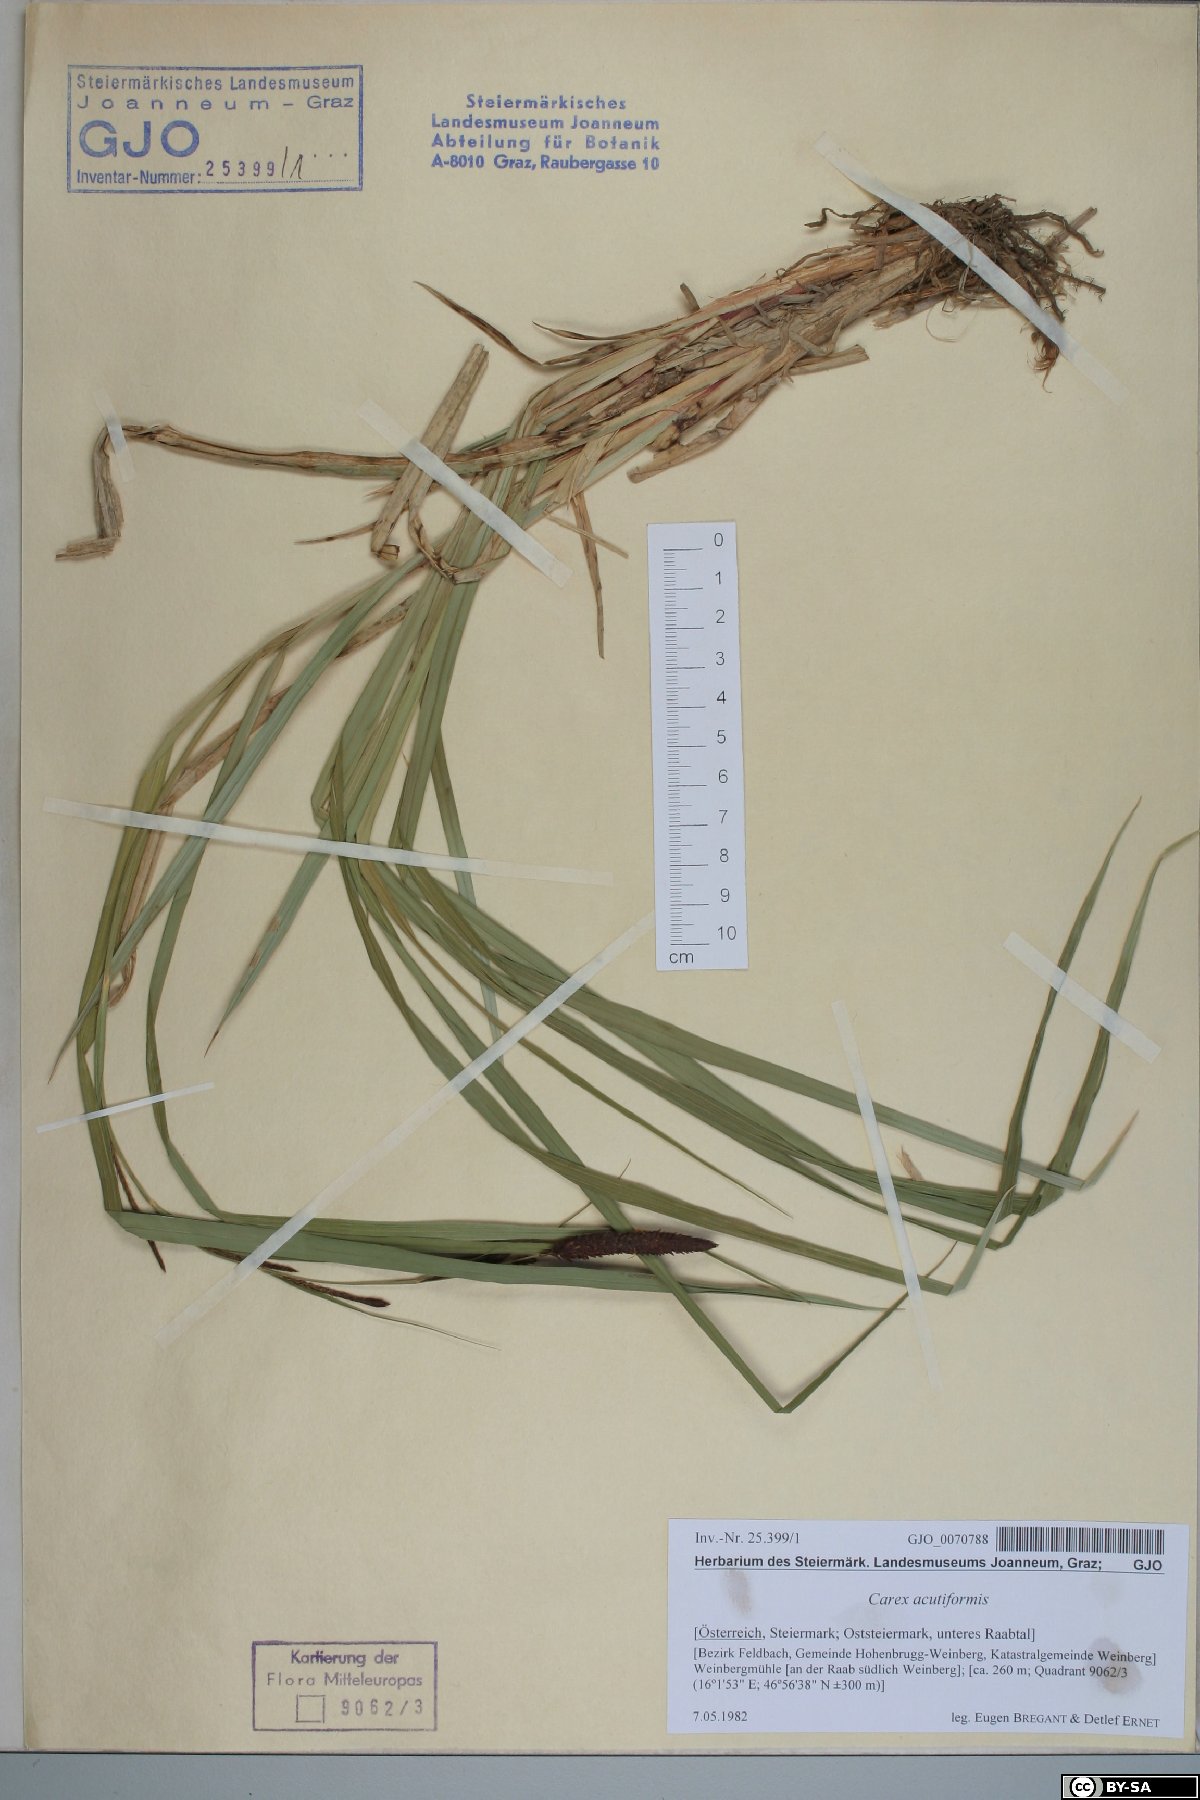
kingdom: Plantae
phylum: Tracheophyta
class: Liliopsida
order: Poales
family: Cyperaceae
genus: Carex
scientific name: Carex acutiformis
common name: Lesser pond-sedge
